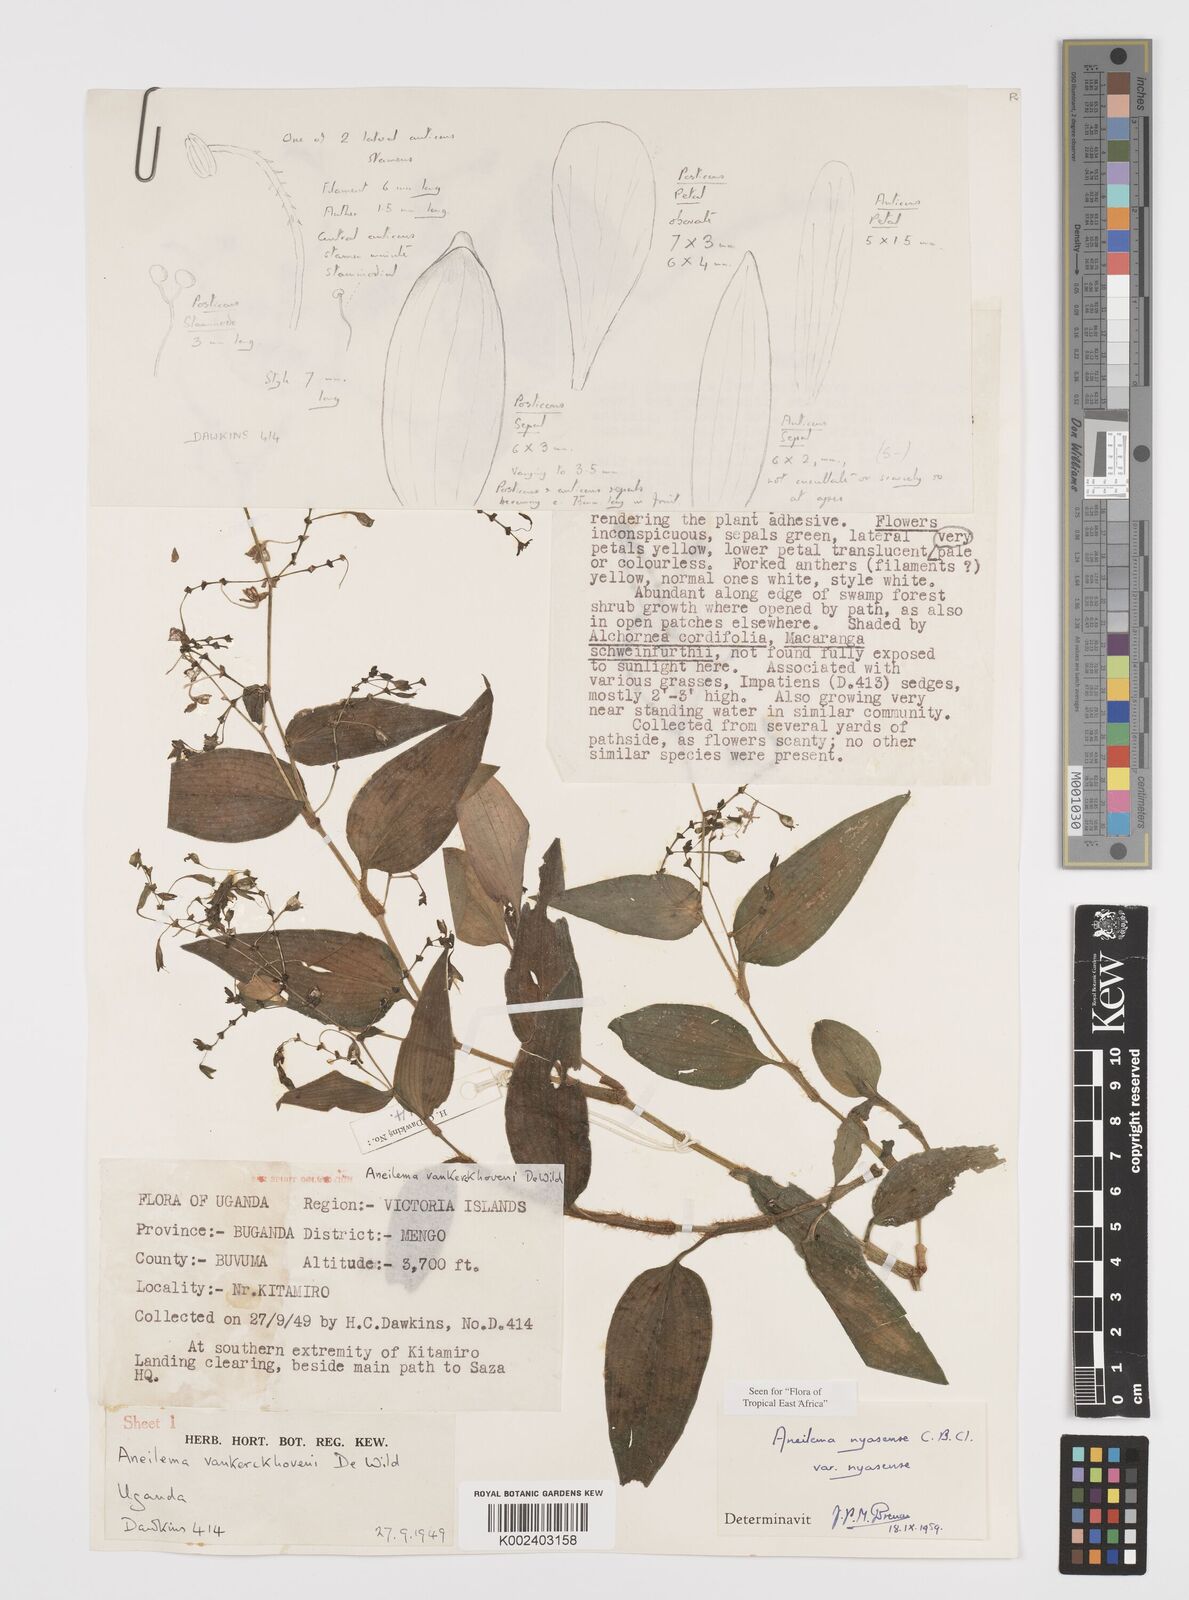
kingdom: Plantae
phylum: Tracheophyta
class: Liliopsida
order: Commelinales
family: Commelinaceae
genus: Aneilema
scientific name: Aneilema nyasense
